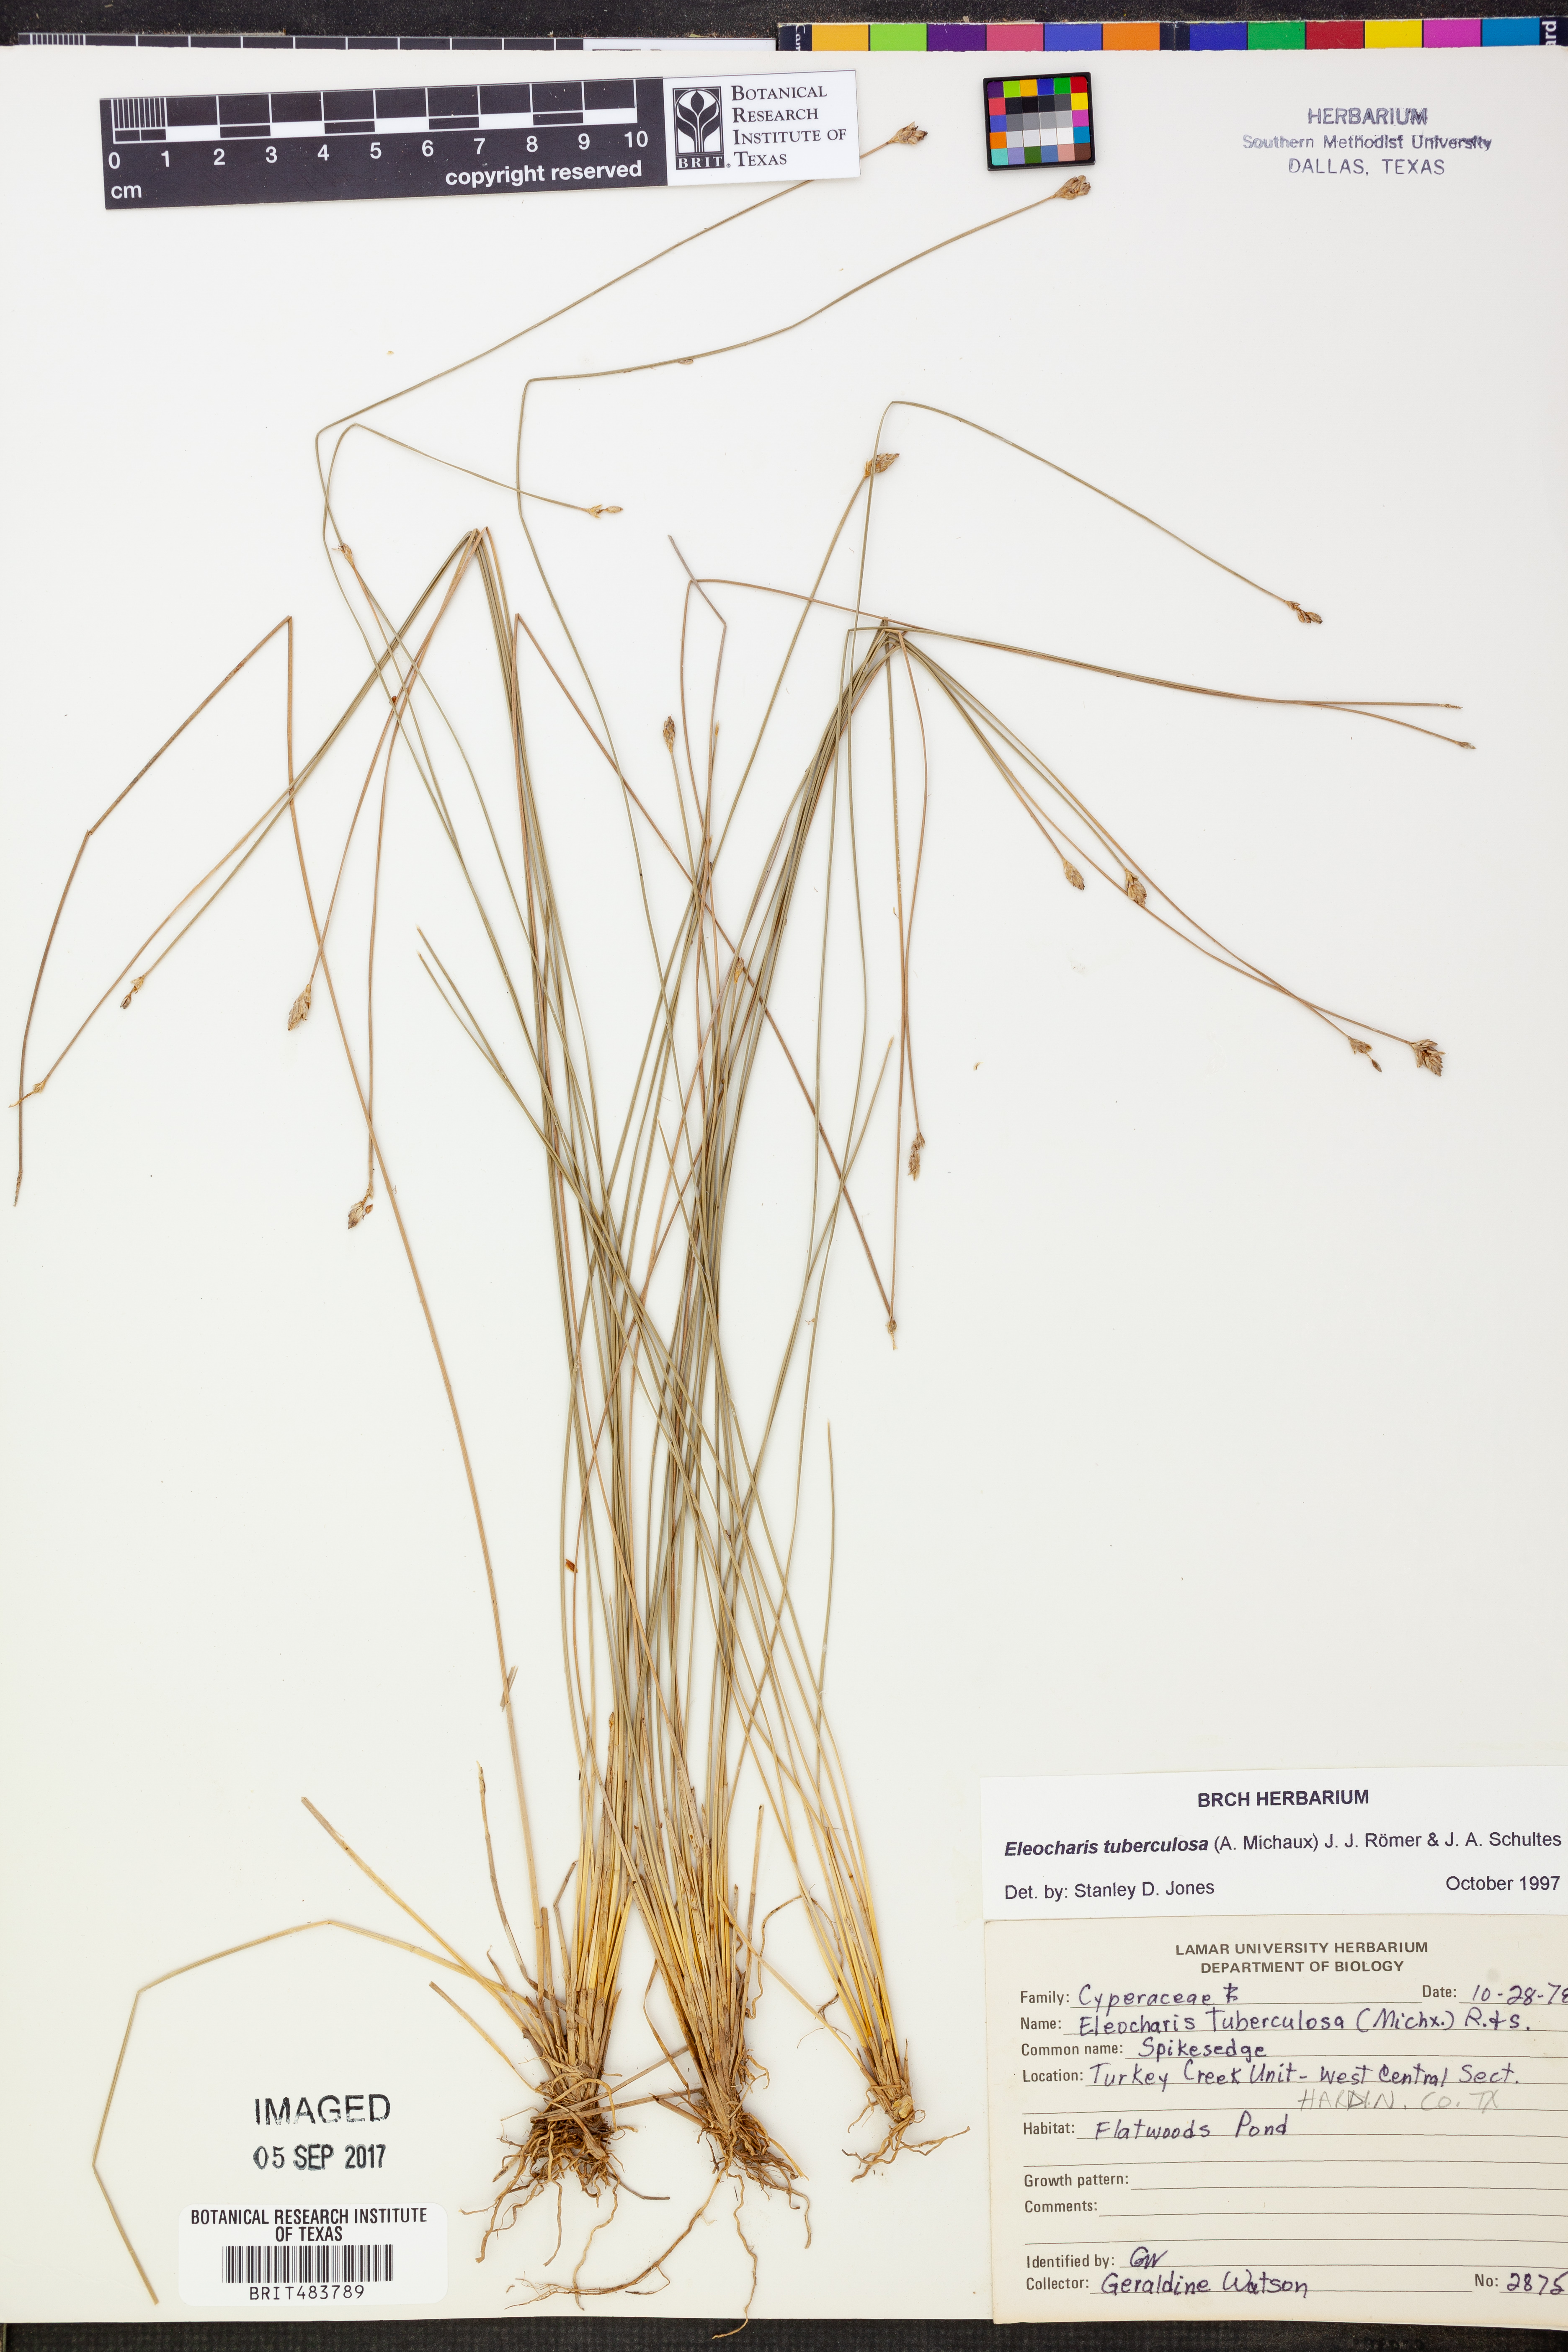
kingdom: Plantae
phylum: Tracheophyta
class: Liliopsida
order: Poales
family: Cyperaceae
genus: Eleocharis
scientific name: Eleocharis tuberculosa
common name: Cone-cup spikerush
